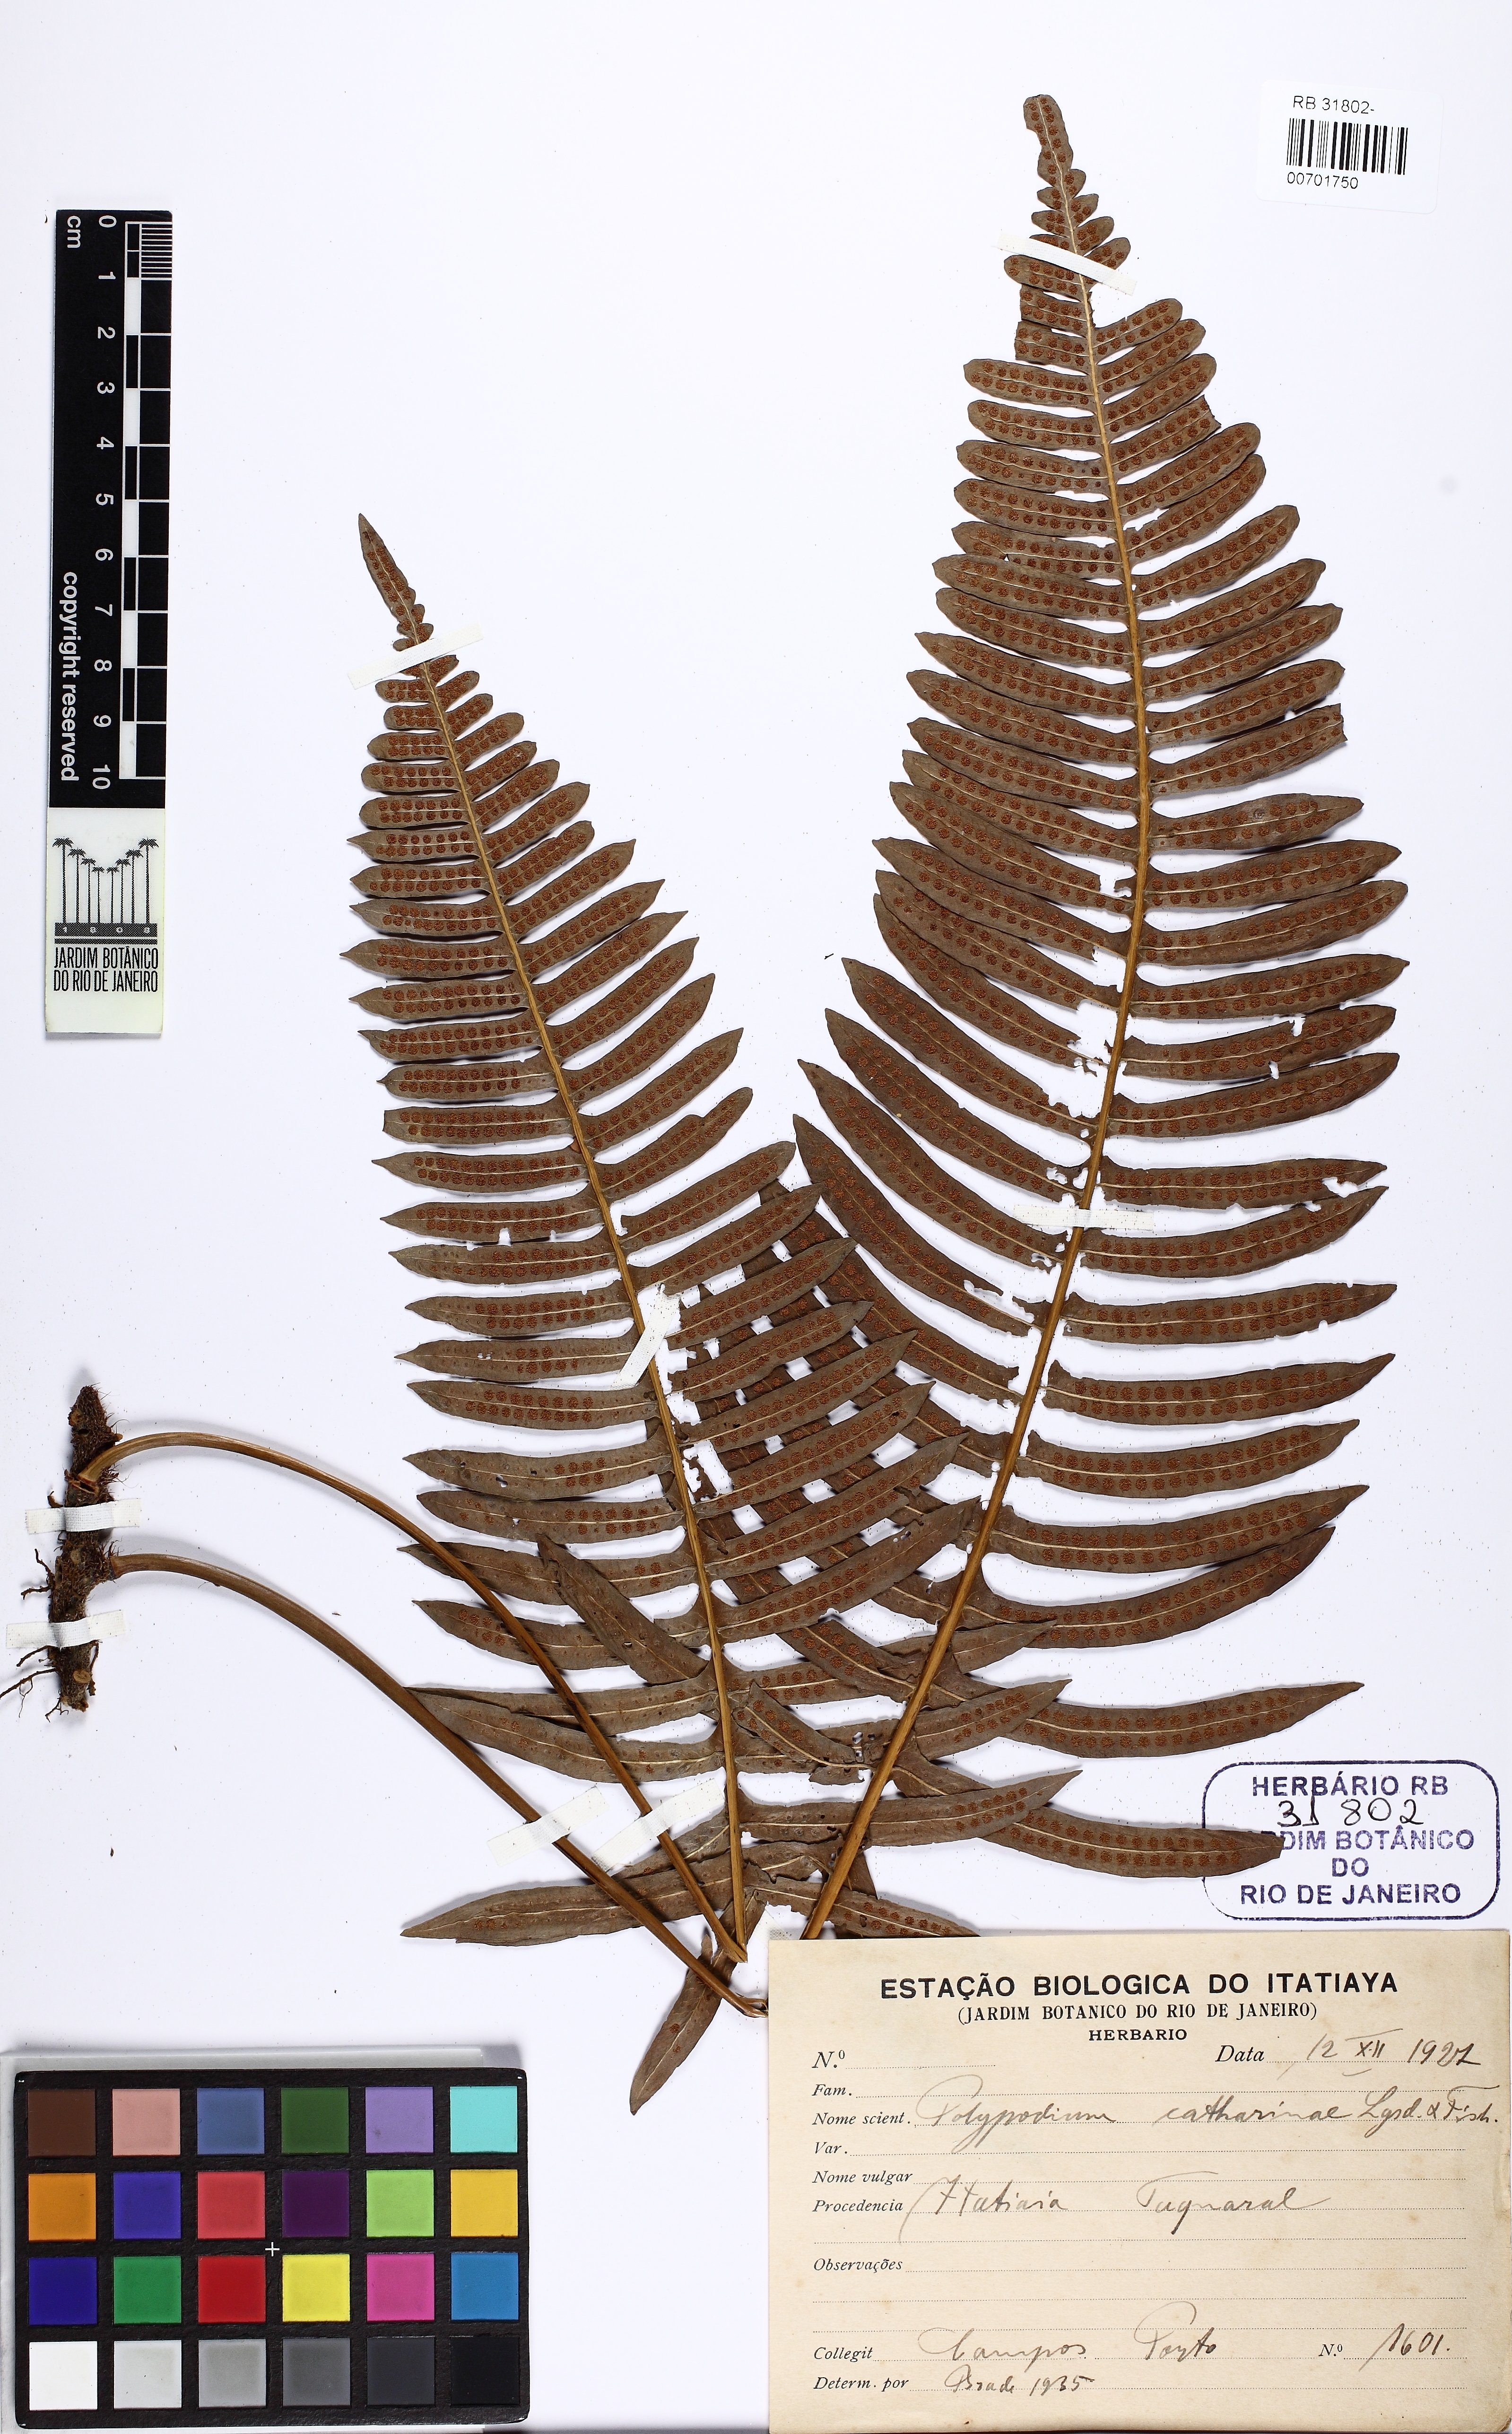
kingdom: Plantae
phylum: Tracheophyta
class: Polypodiopsida
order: Polypodiales
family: Polypodiaceae
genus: Serpocaulon
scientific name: Serpocaulon catharinae
